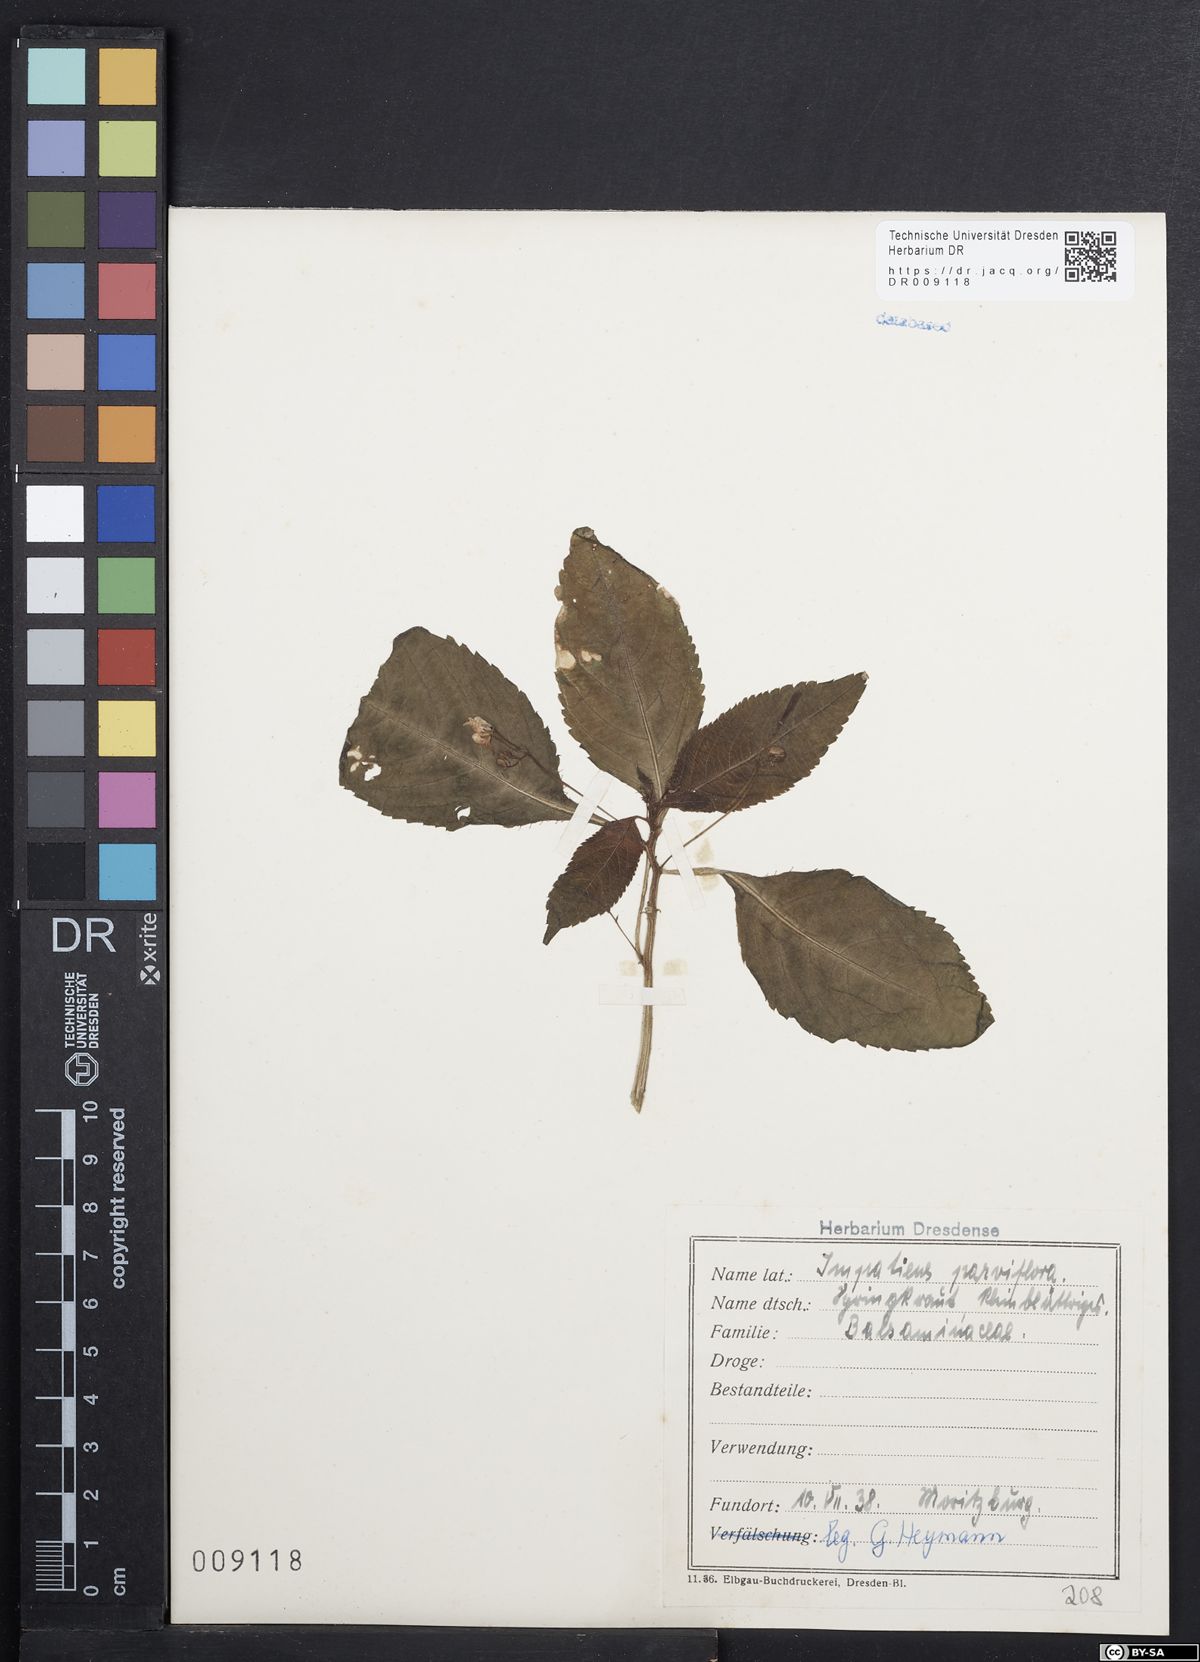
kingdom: Plantae
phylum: Tracheophyta
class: Magnoliopsida
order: Ericales
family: Balsaminaceae
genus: Impatiens
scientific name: Impatiens parviflora
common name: Small balsam
